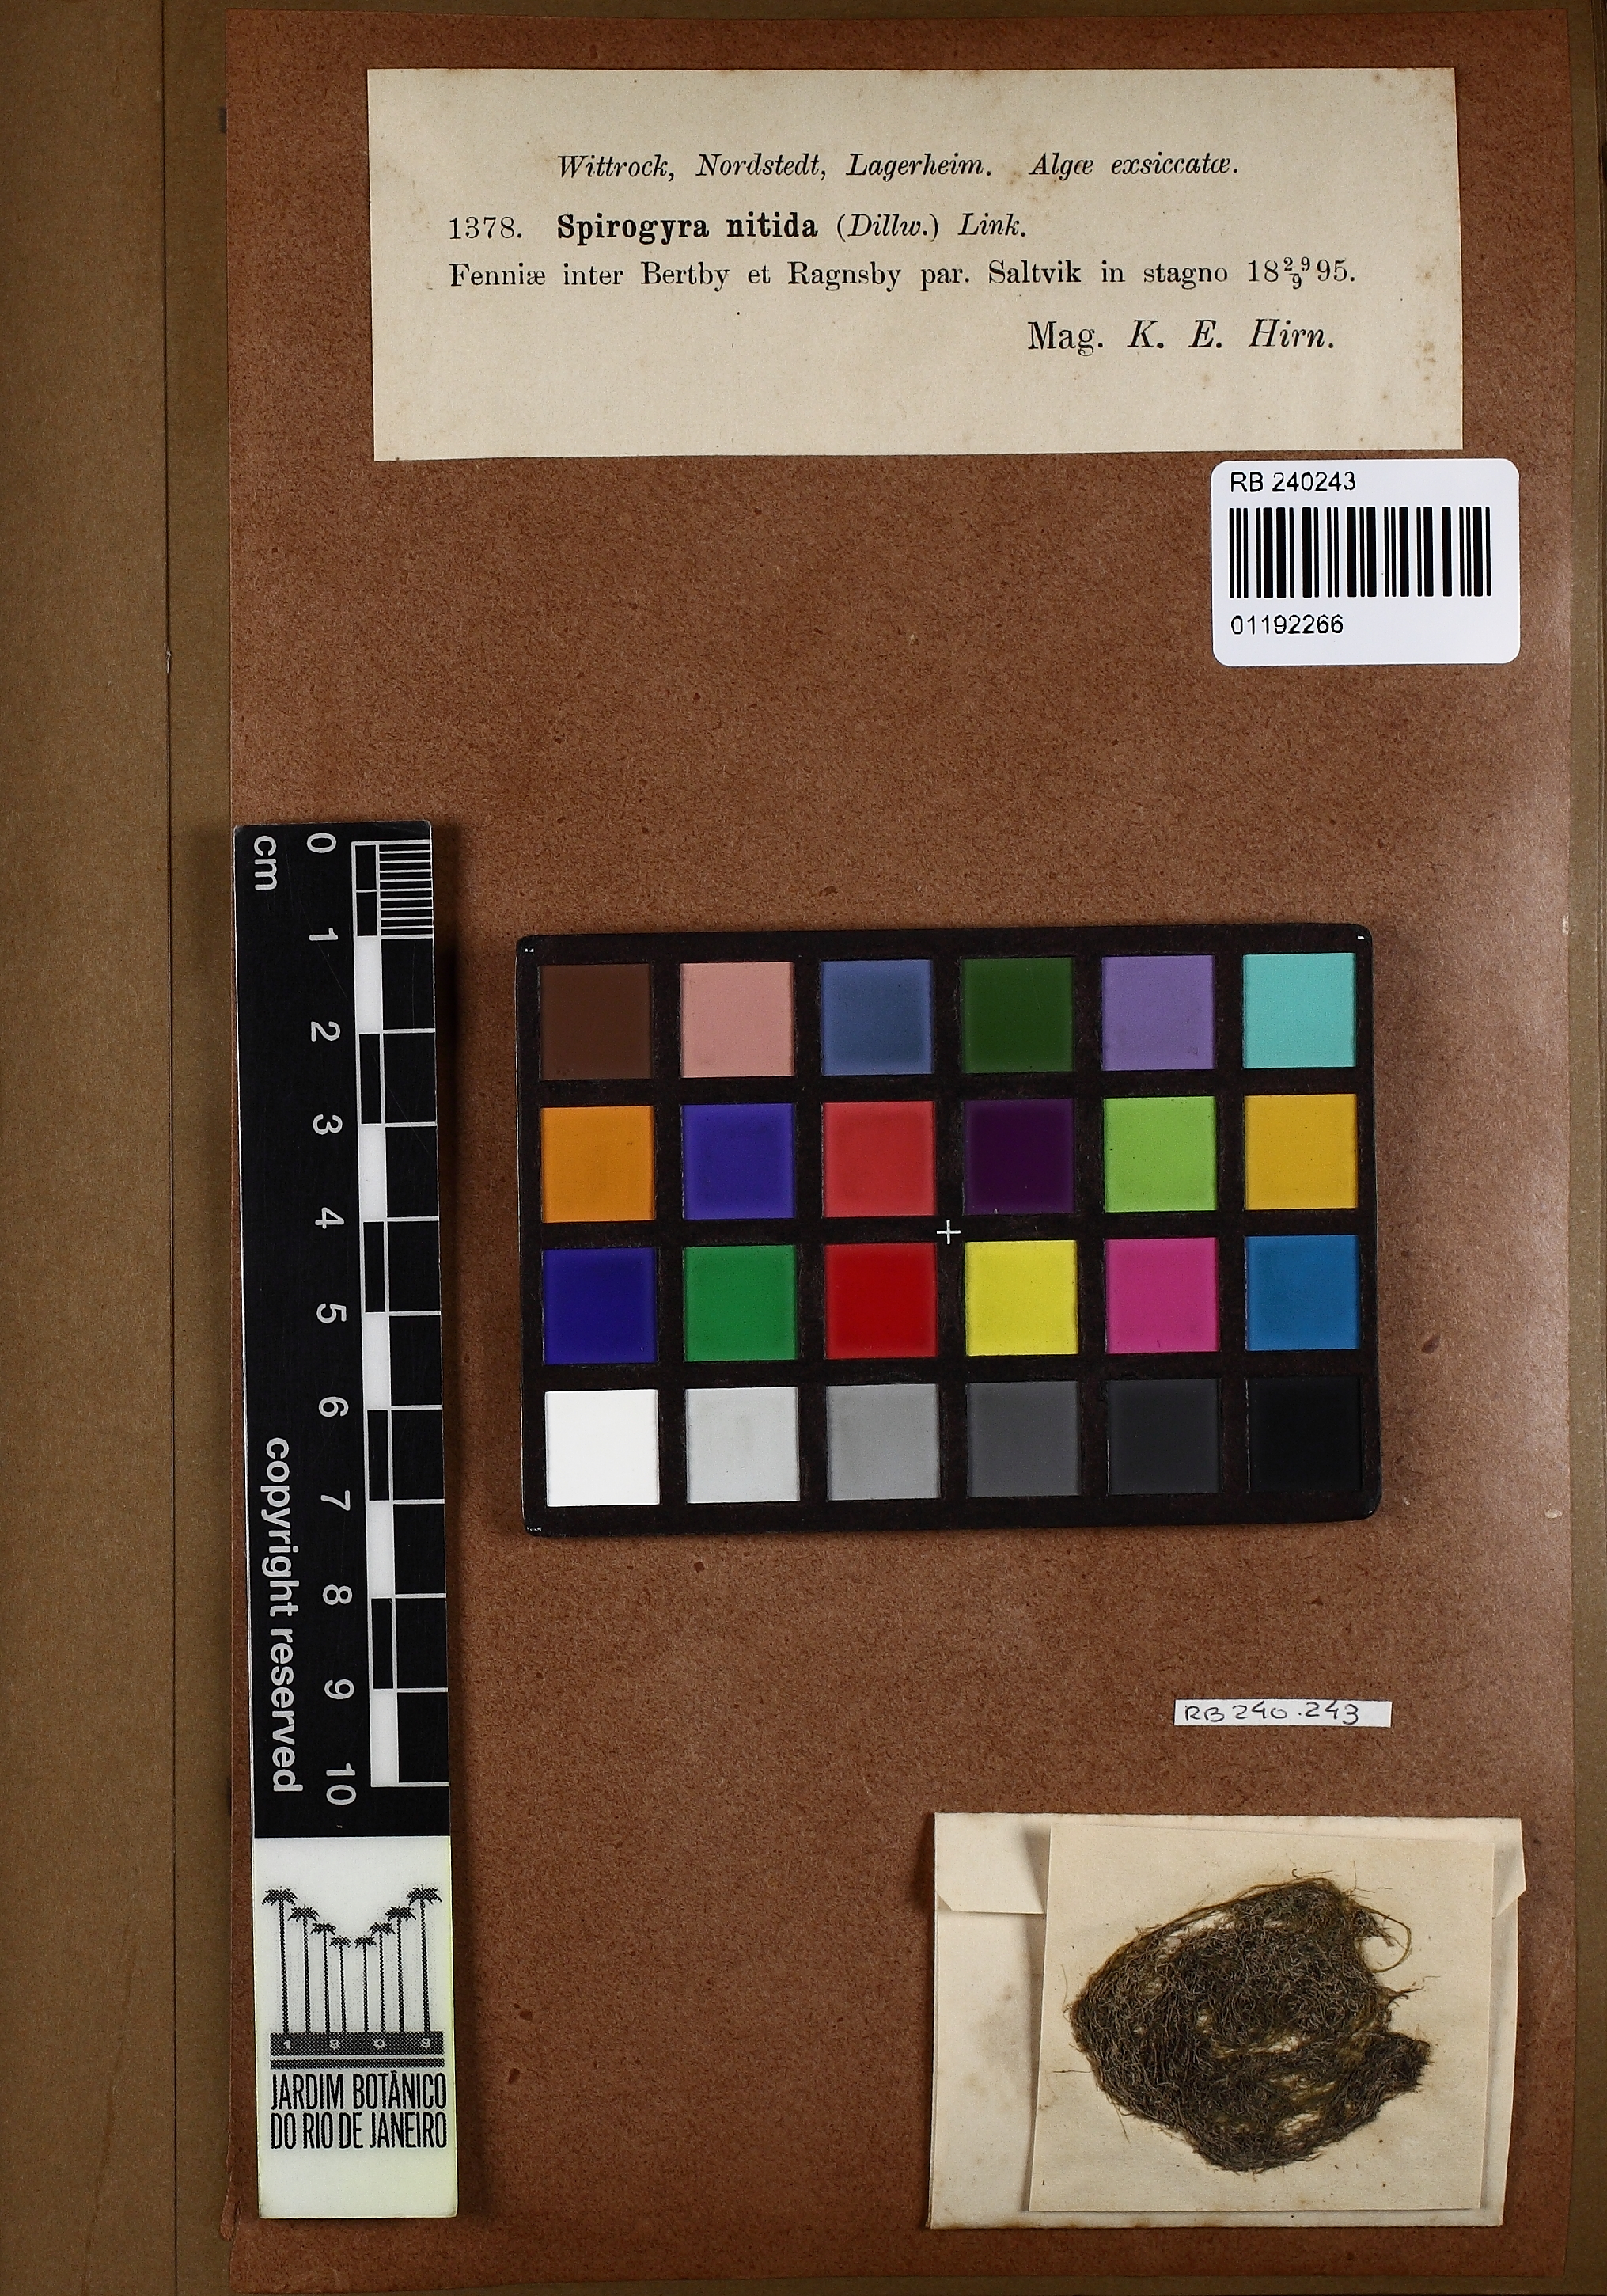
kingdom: Plantae
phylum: Charophyta
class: Zygnematophyceae
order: Zygnematales
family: Zygnemataceae
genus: Spirogyra
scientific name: Spirogyra nitida
